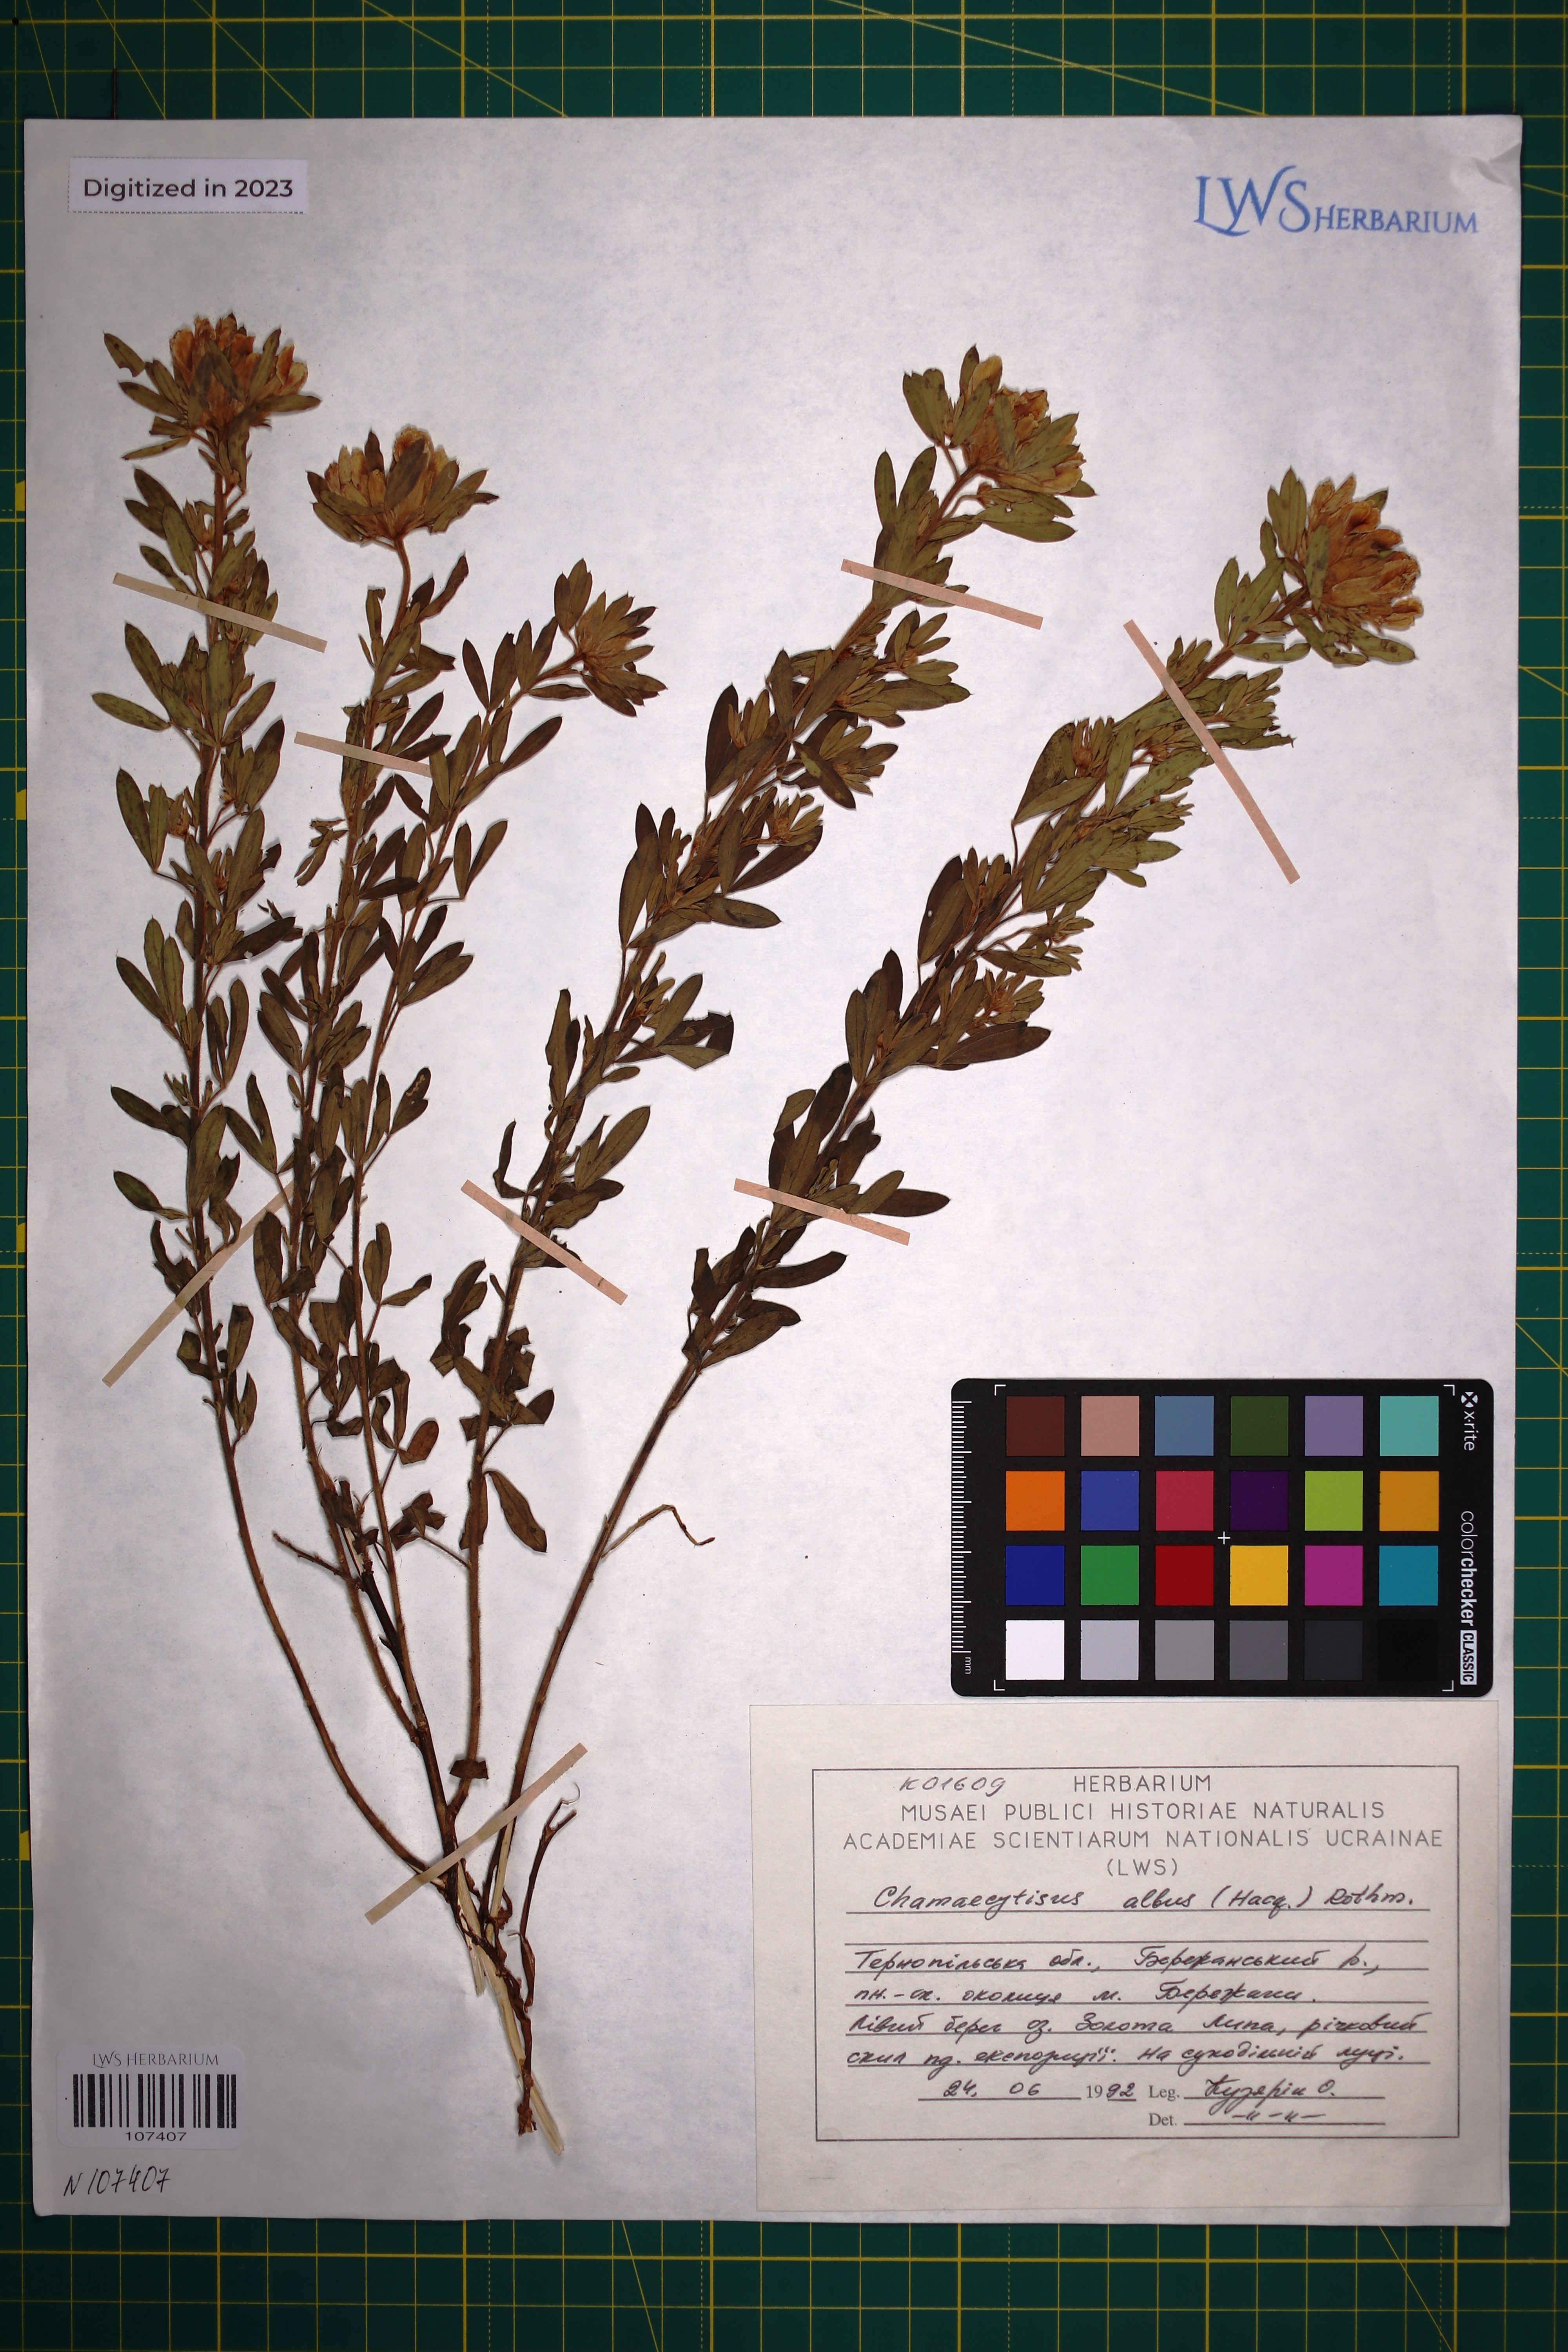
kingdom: Plantae
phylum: Tracheophyta
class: Magnoliopsida
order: Fabales
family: Fabaceae
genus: Chamaecytisus
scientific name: Chamaecytisus albus
